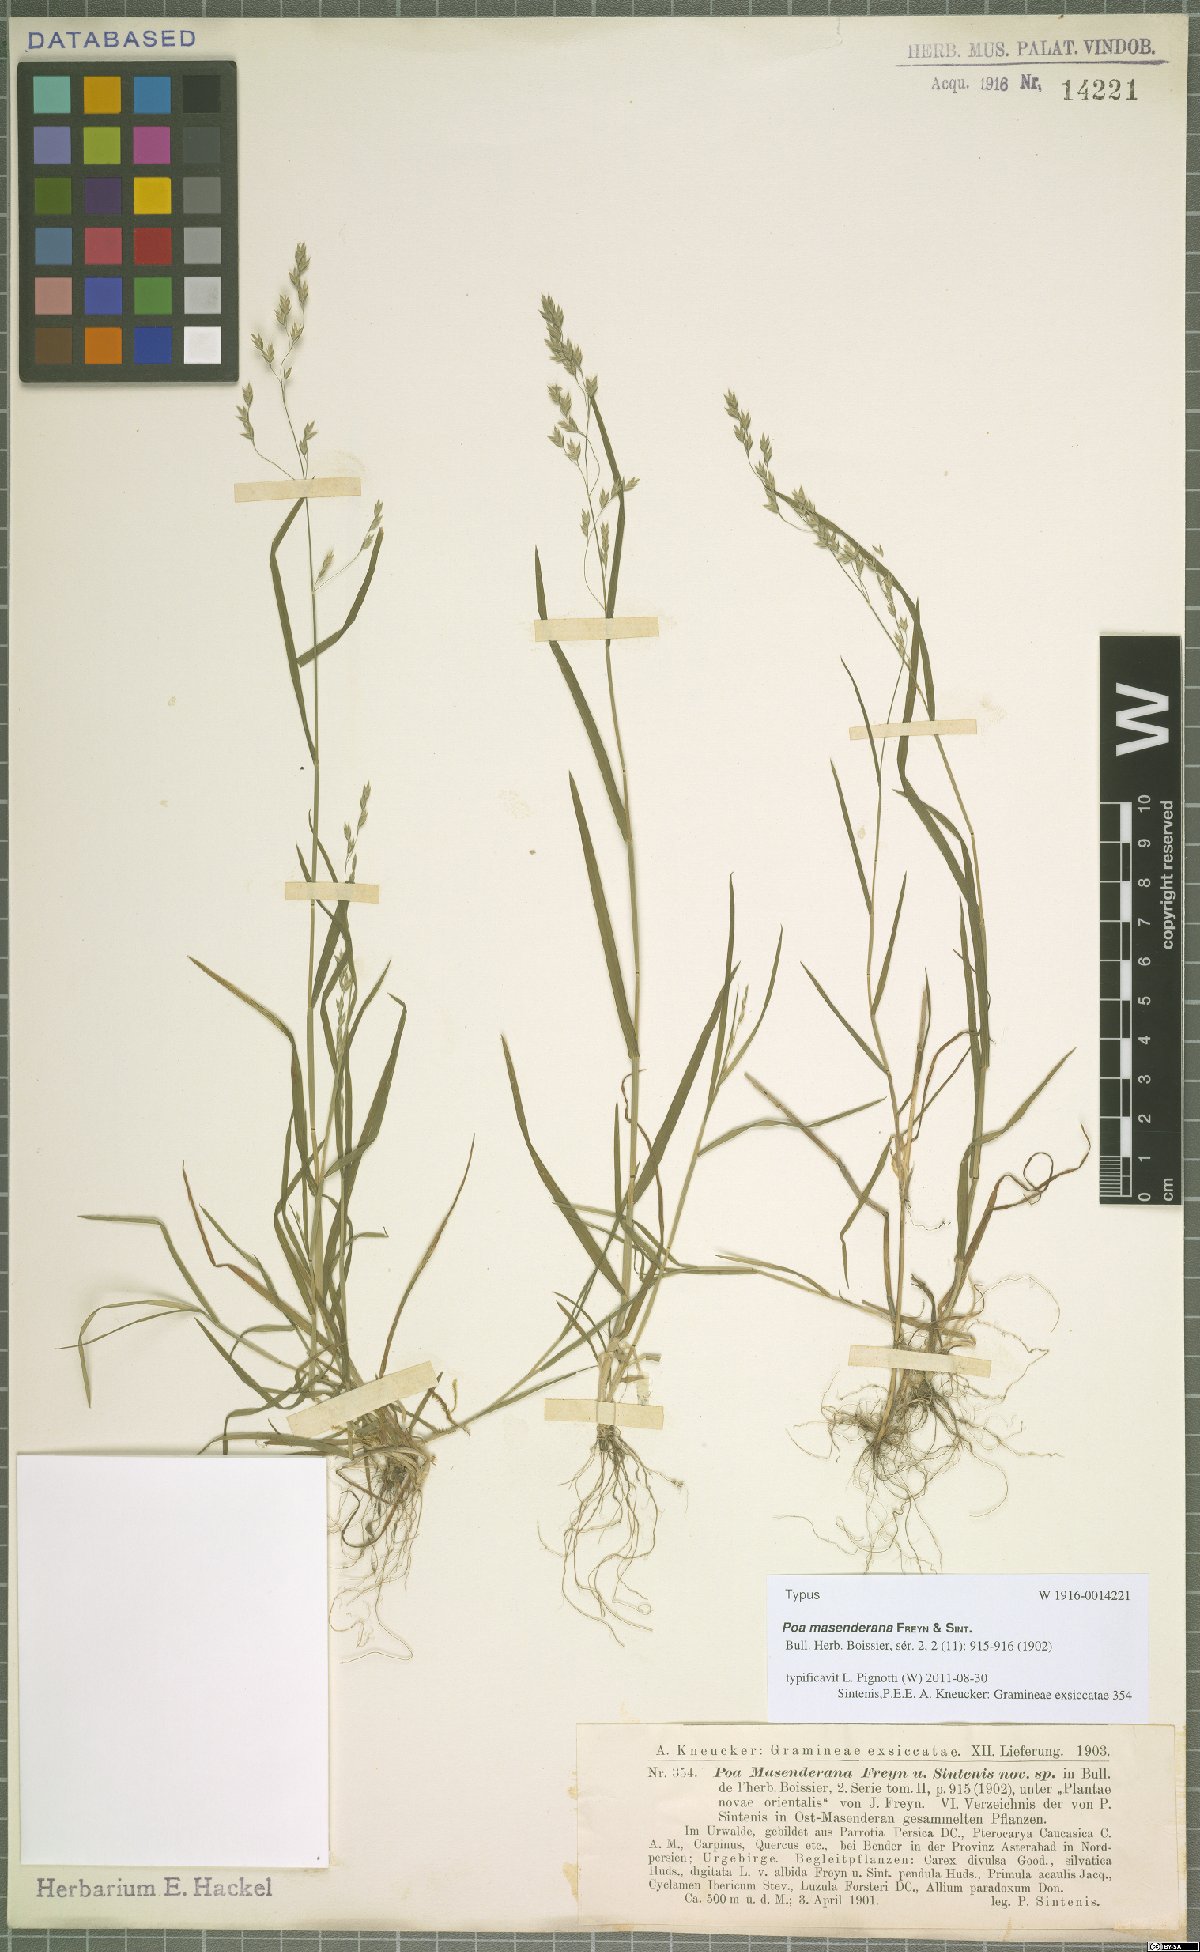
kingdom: Plantae
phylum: Tracheophyta
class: Liliopsida
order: Poales
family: Poaceae
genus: Poa
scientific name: Poa masenderana
